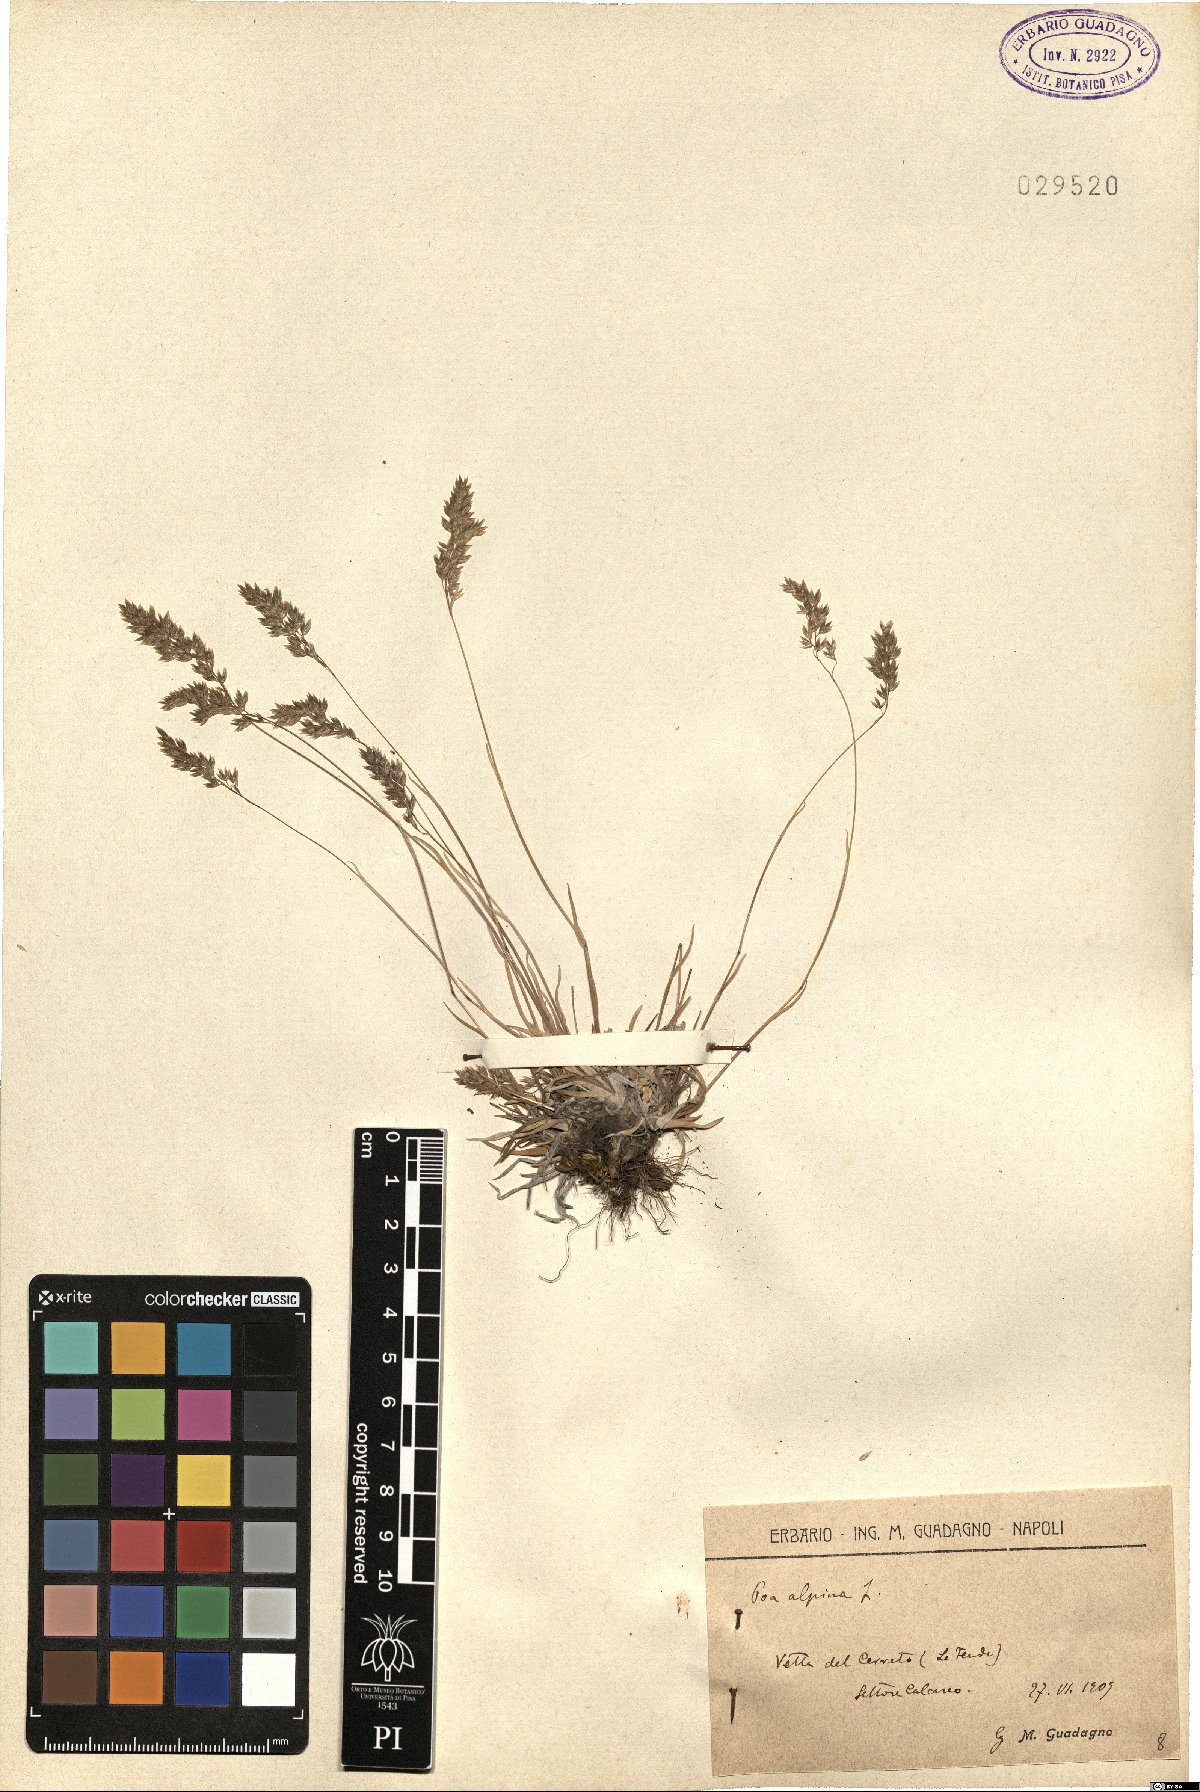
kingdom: Plantae
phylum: Tracheophyta
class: Liliopsida
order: Poales
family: Poaceae
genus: Poa
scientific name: Poa alpina
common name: Alpine bluegrass
